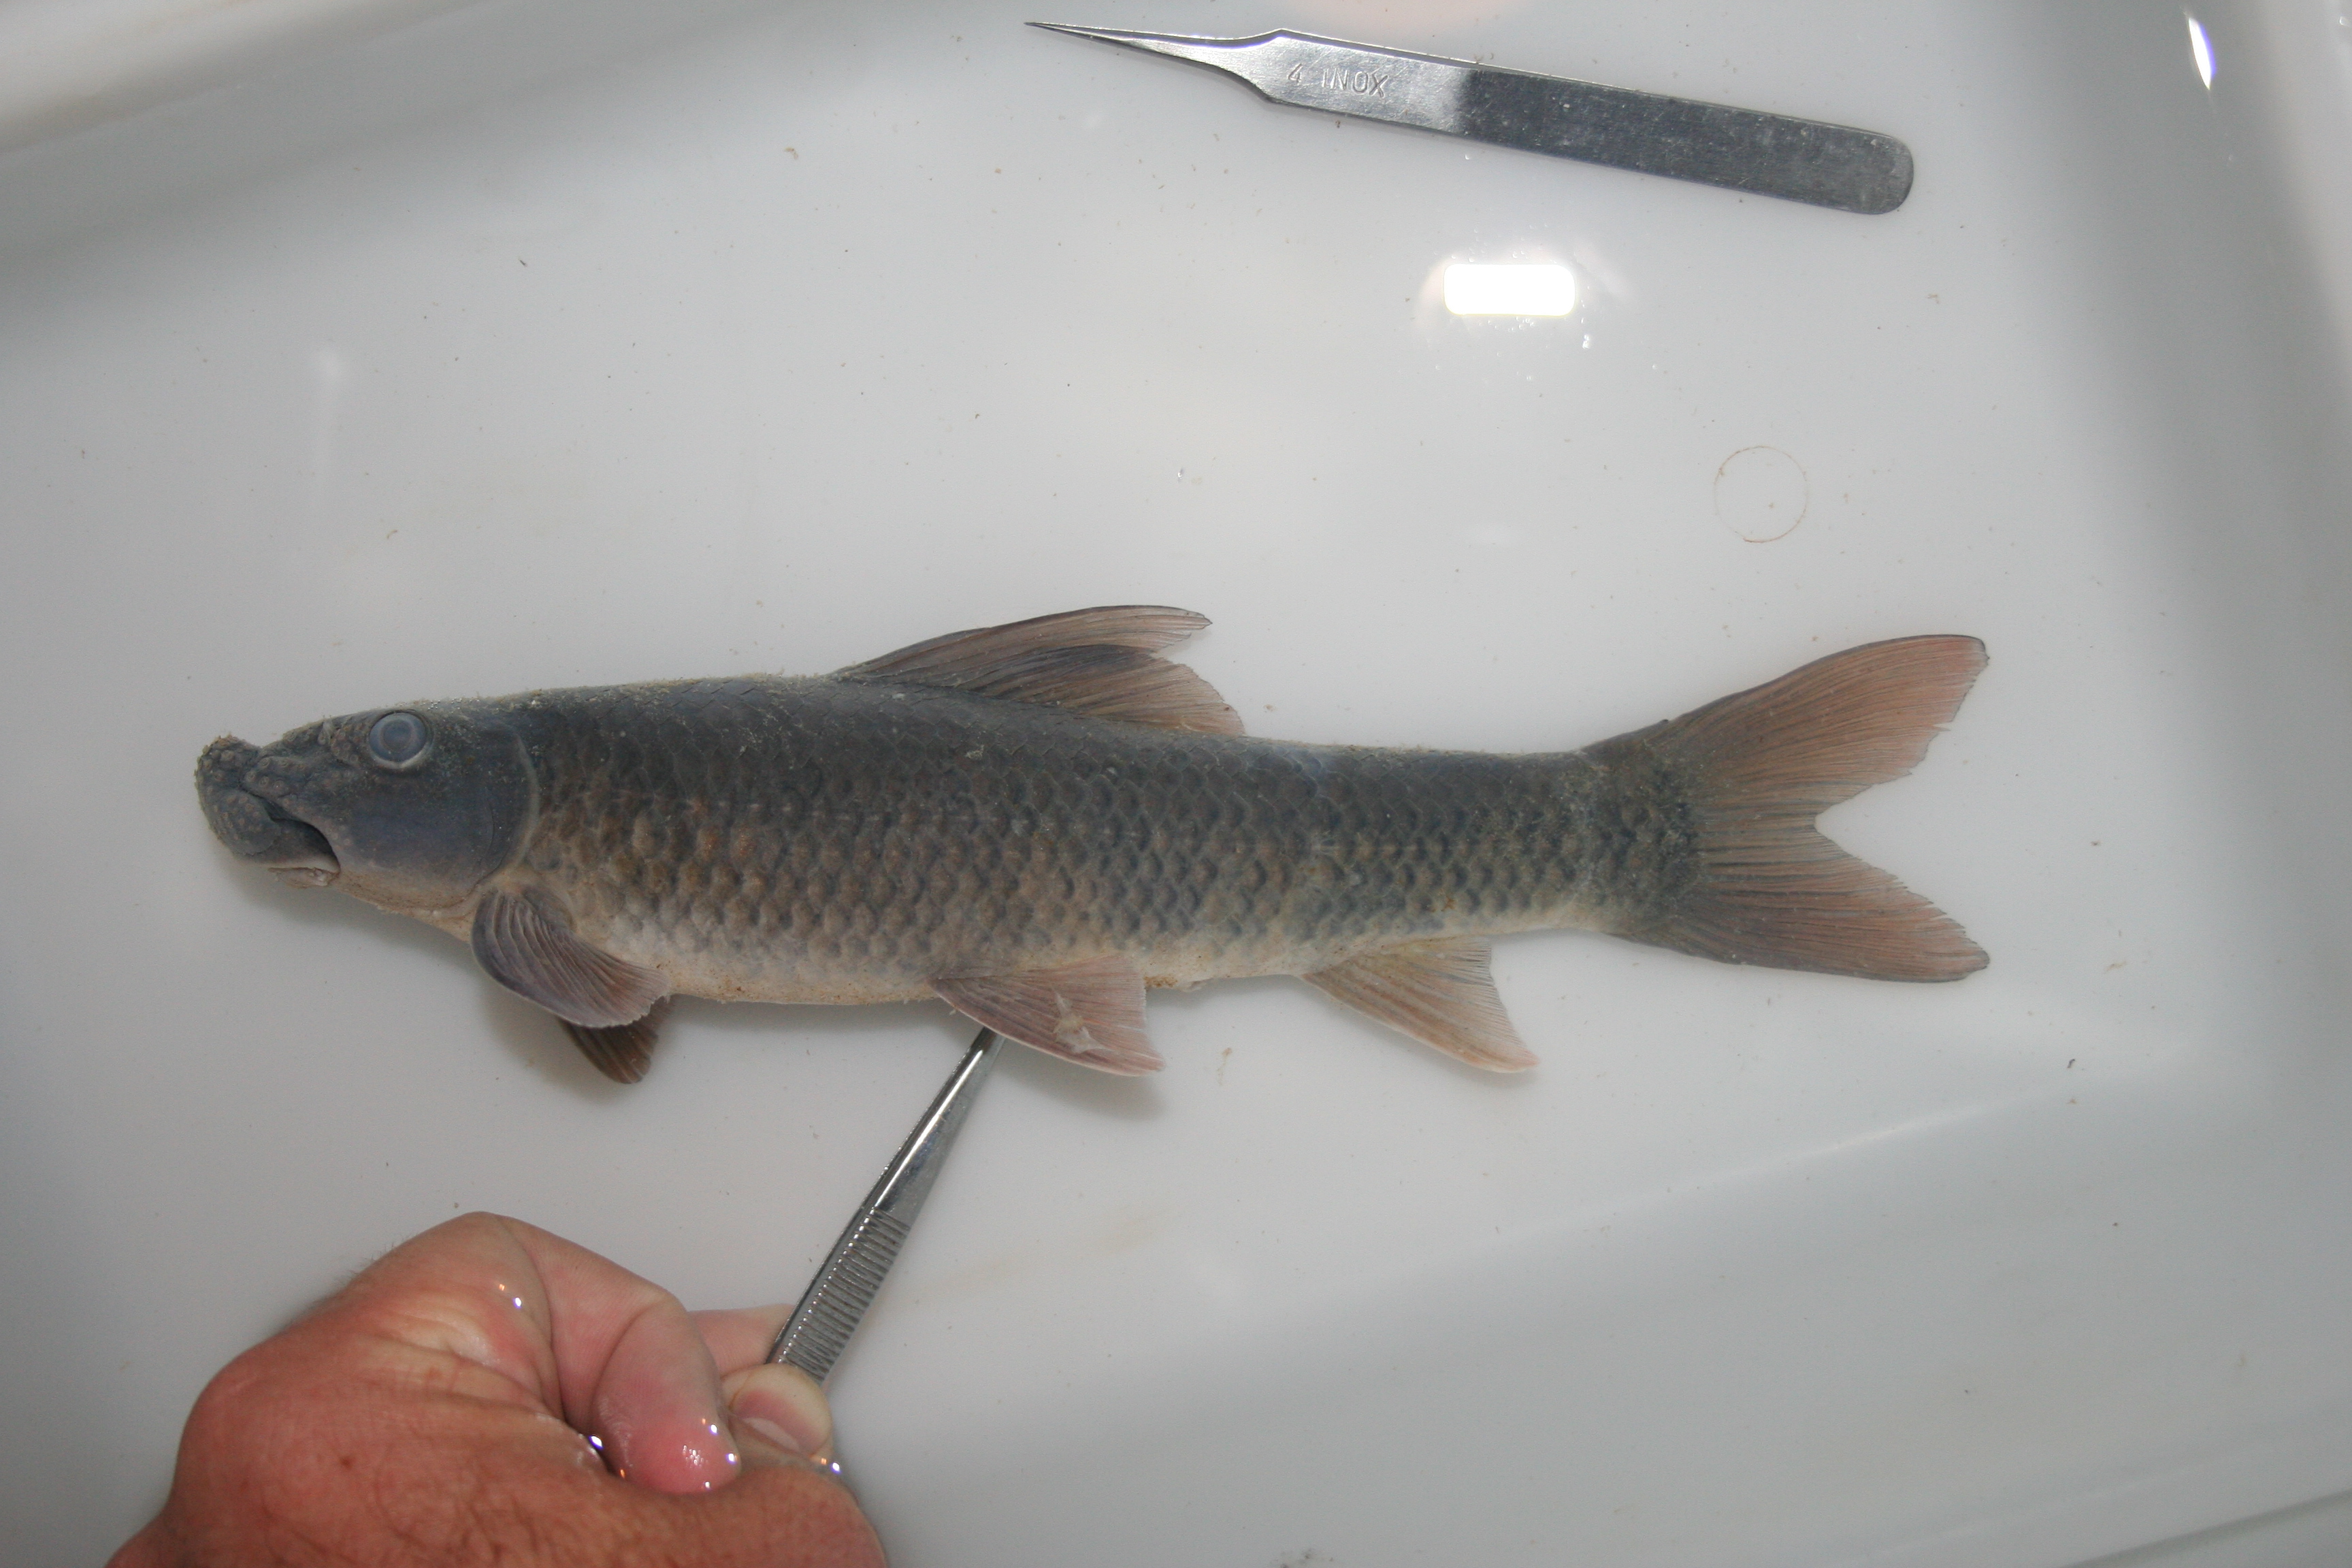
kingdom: Animalia
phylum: Chordata
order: Cypriniformes
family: Cyprinidae
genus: Labeo
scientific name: Labeo
